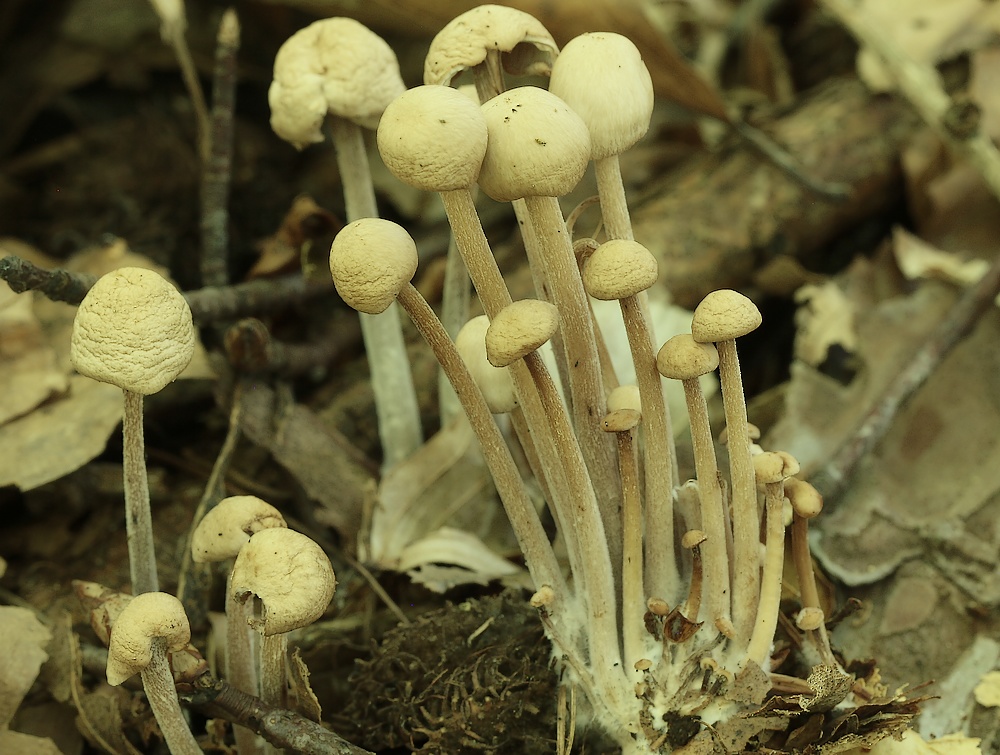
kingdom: Fungi
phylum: Basidiomycota
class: Agaricomycetes
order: Agaricales
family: Omphalotaceae
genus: Collybiopsis
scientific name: Collybiopsis confluens
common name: knippe-fladhat
